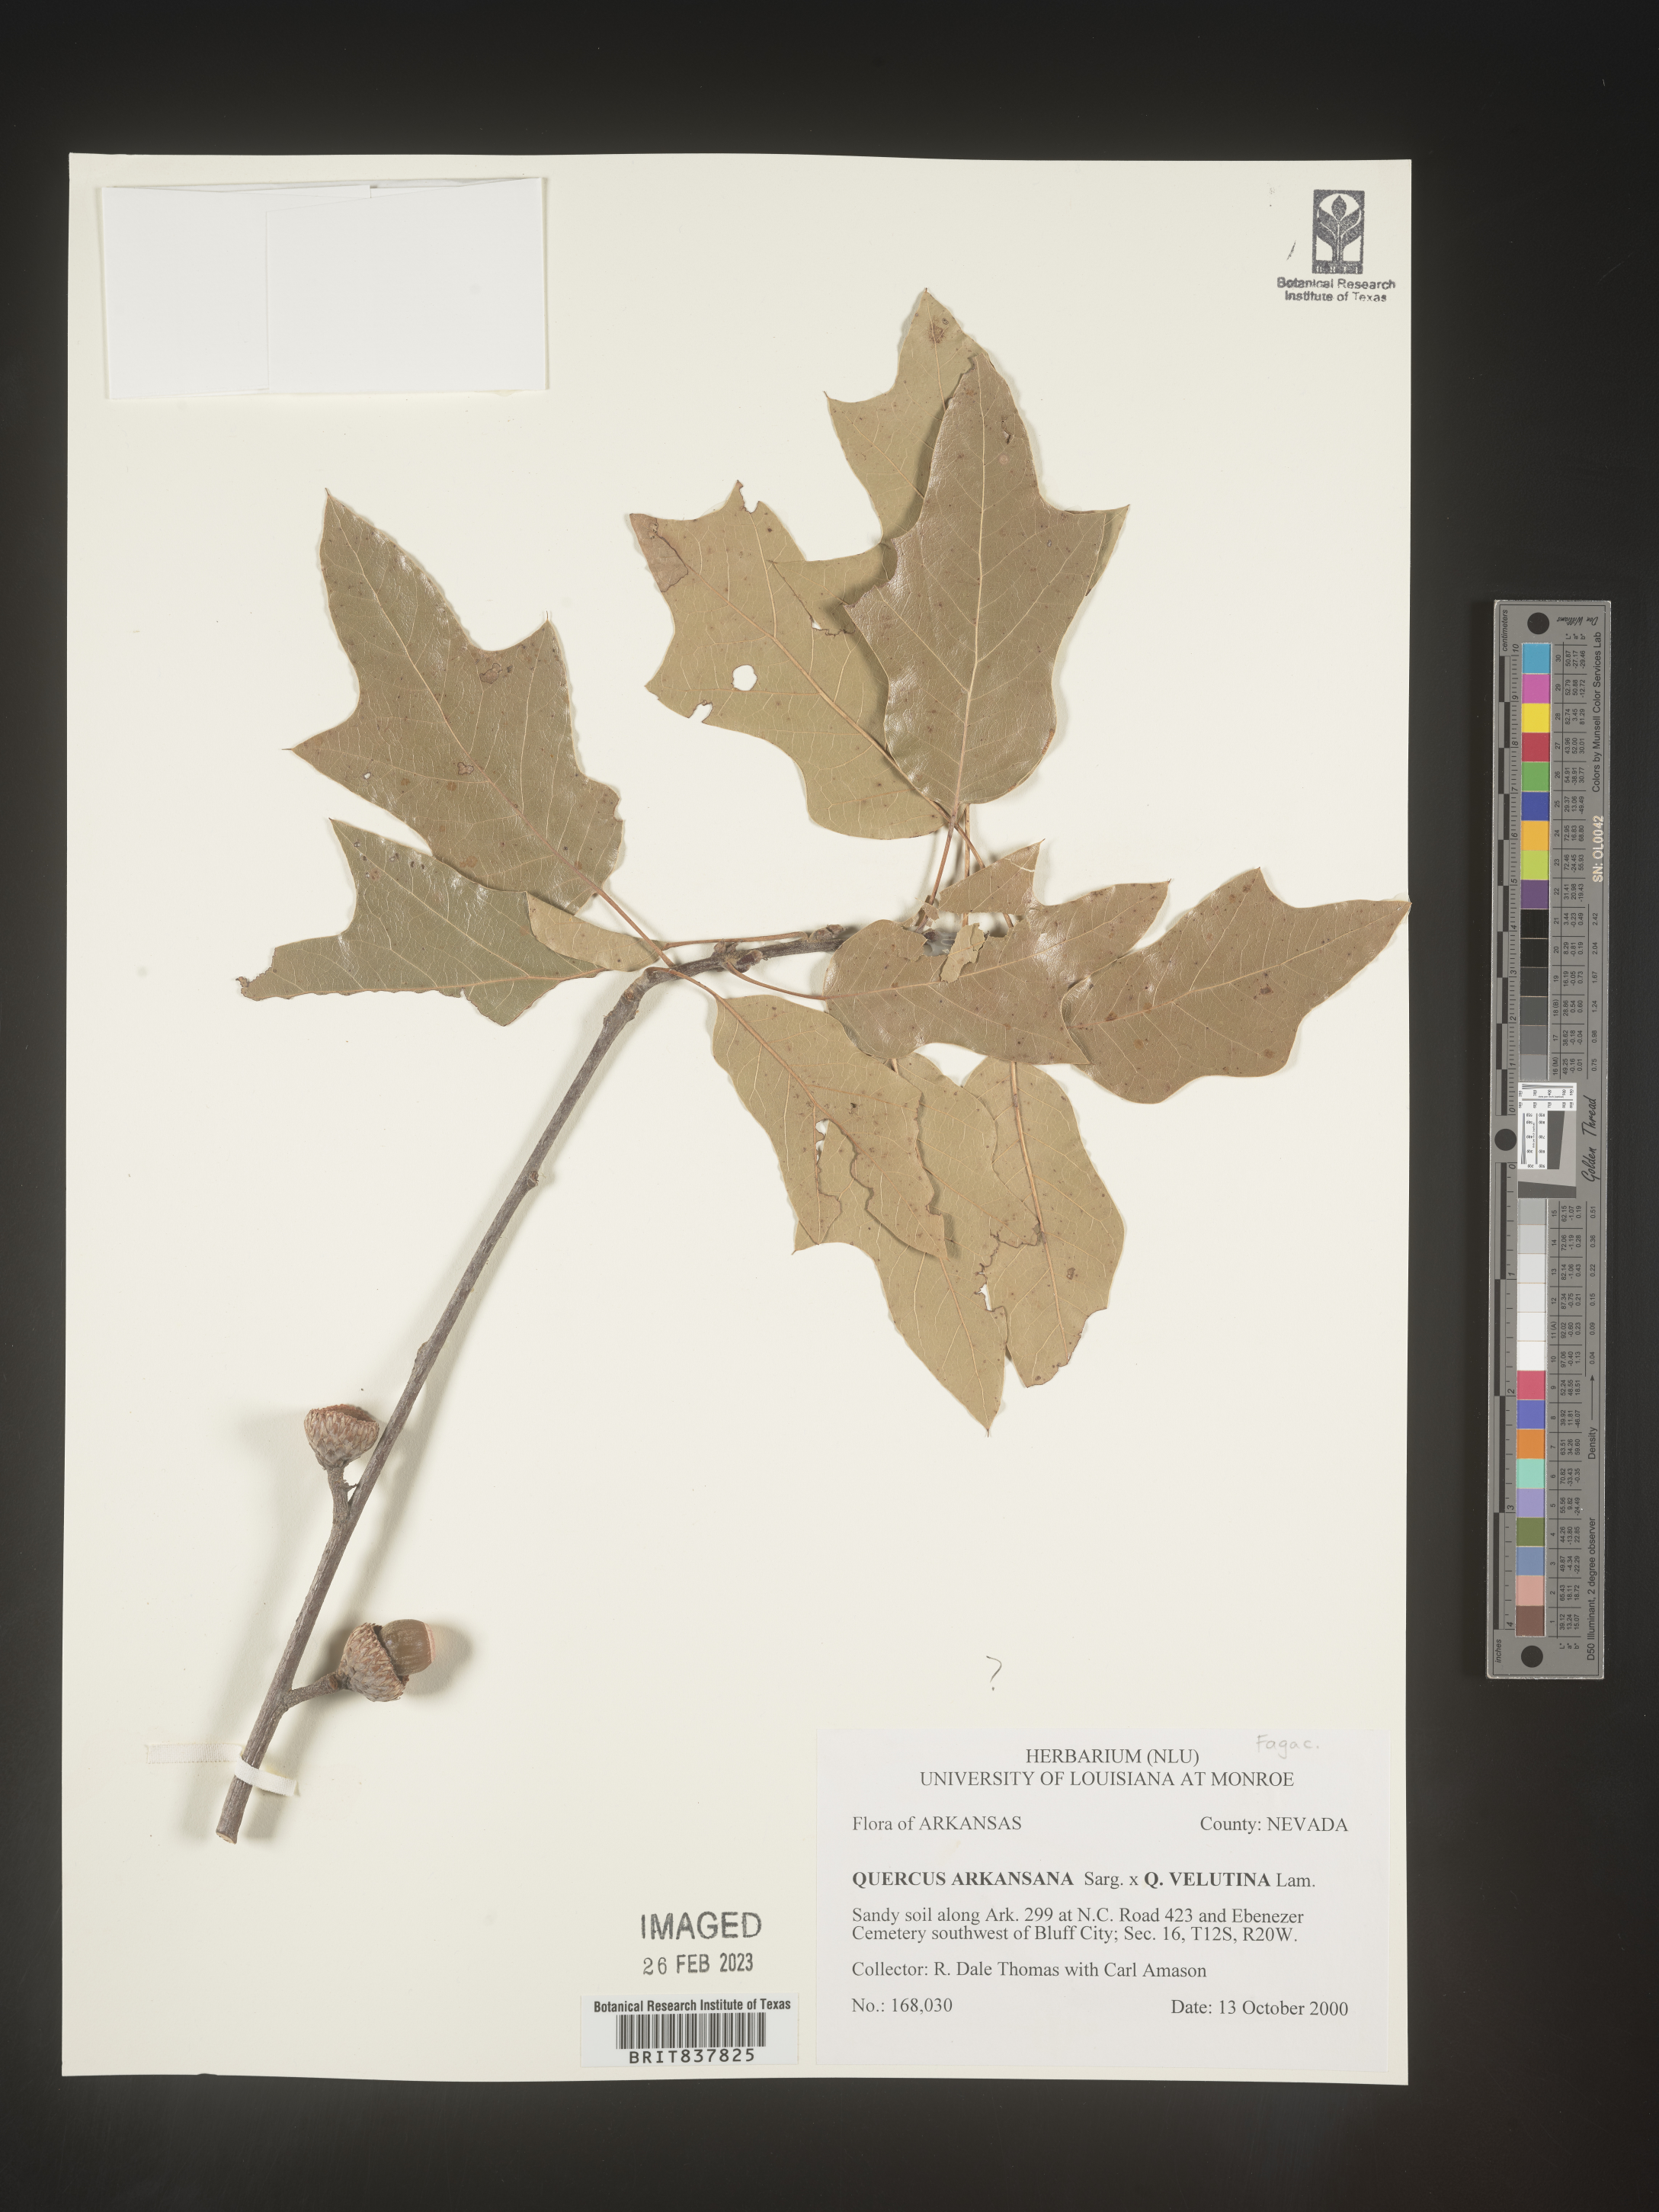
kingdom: Plantae
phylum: Tracheophyta
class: Magnoliopsida
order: Fagales
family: Fagaceae
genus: Quercus
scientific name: Quercus arkansana
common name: Arkansas oak
